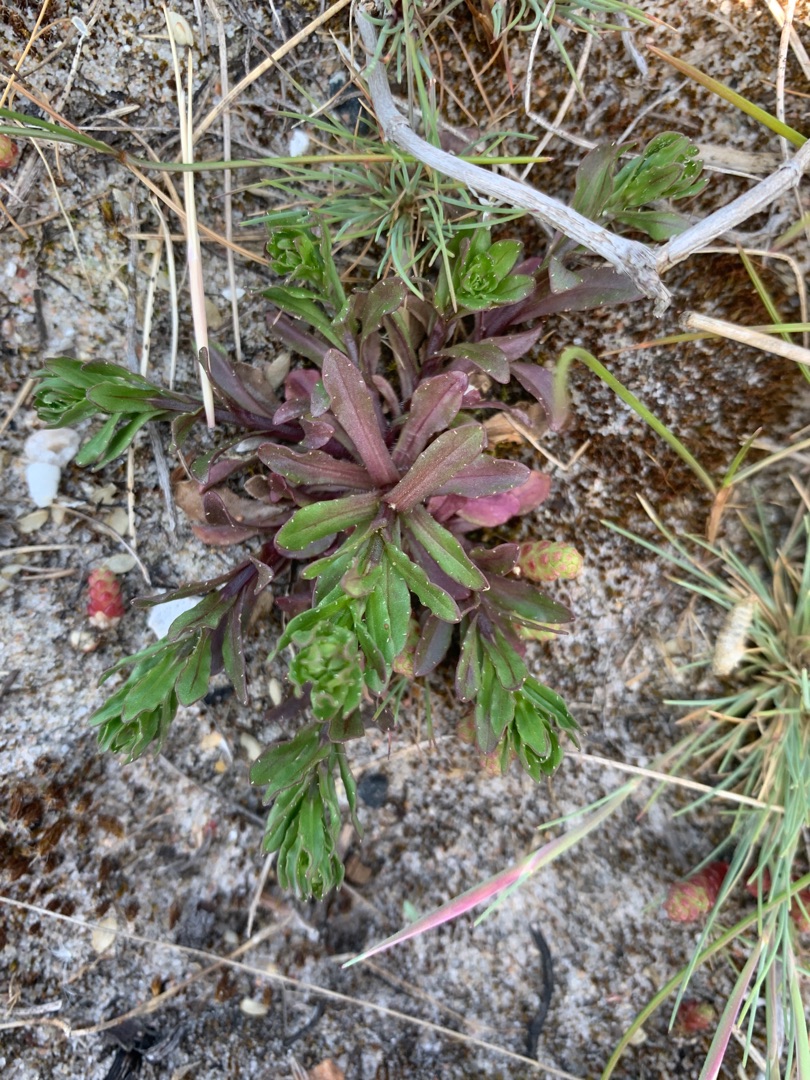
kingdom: Plantae
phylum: Tracheophyta
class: Magnoliopsida
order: Asterales
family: Campanulaceae
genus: Jasione
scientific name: Jasione montana
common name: Blåmunke
